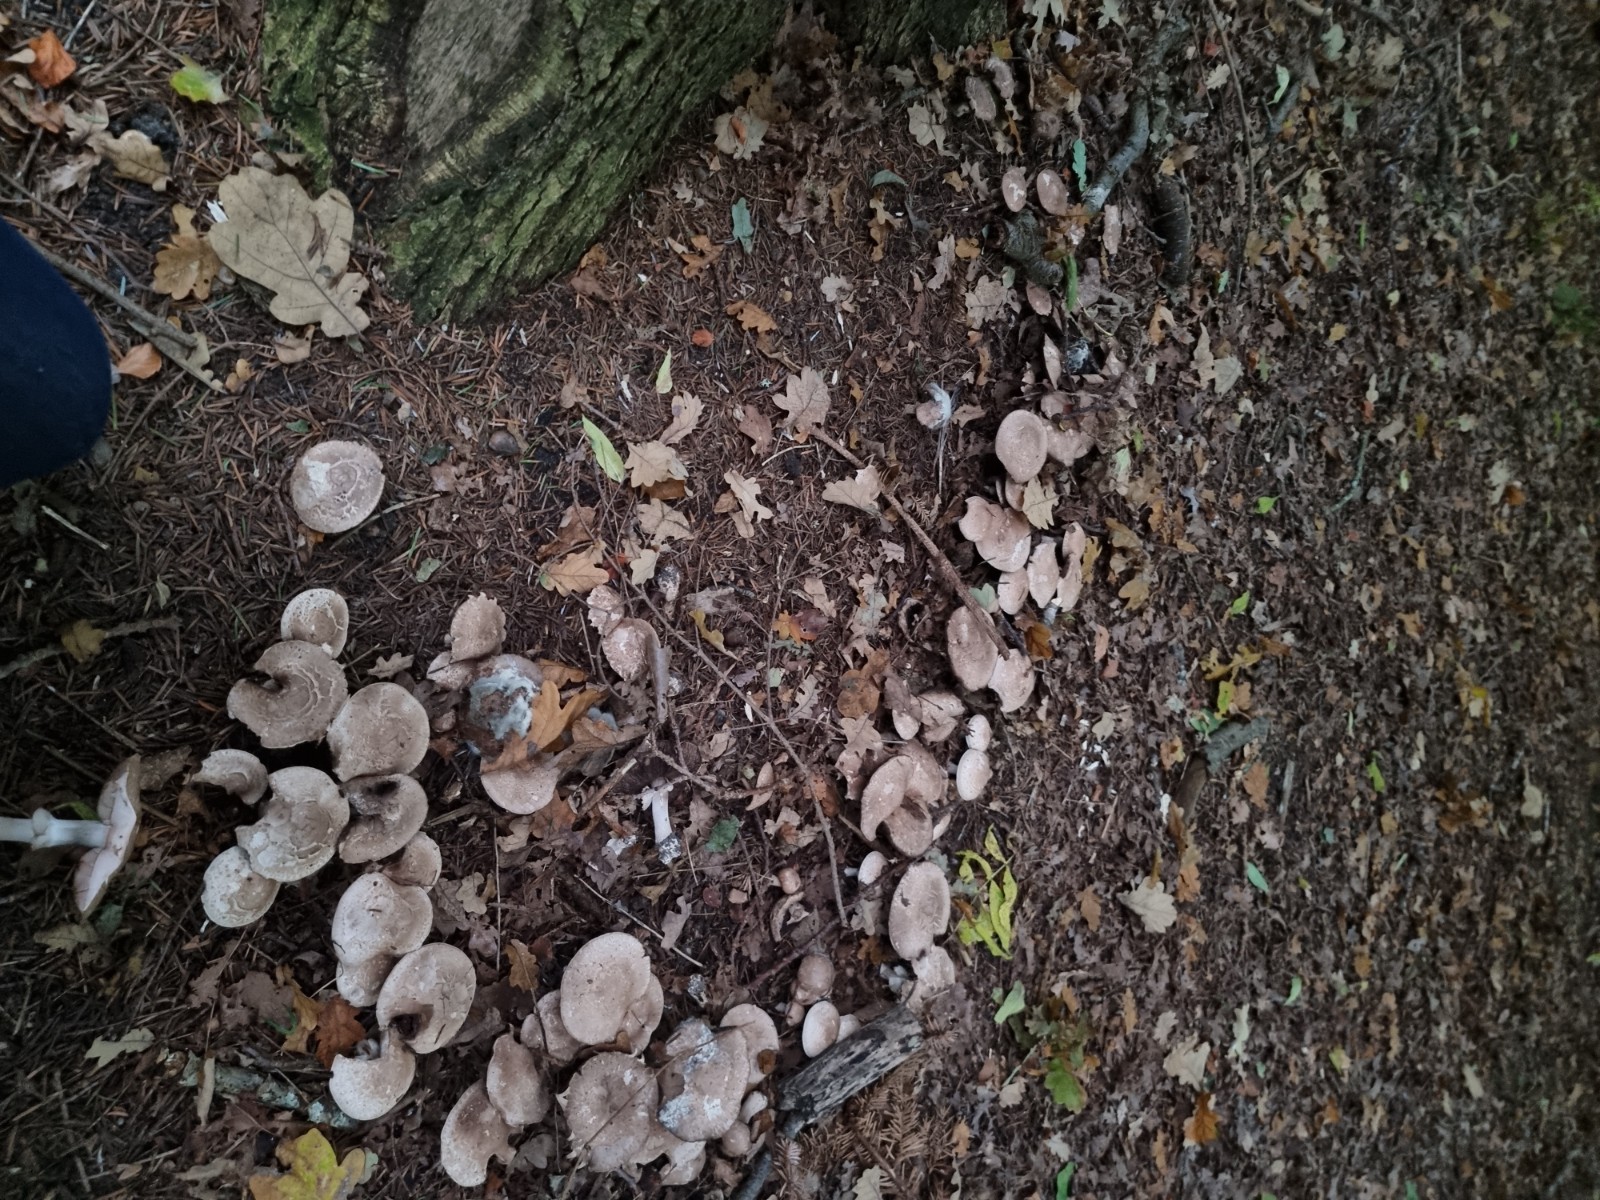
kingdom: Fungi
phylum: Basidiomycota
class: Agaricomycetes
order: Agaricales
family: Agaricaceae
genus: Agaricus
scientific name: Agaricus sylvaticus
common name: lille blod-champignon
